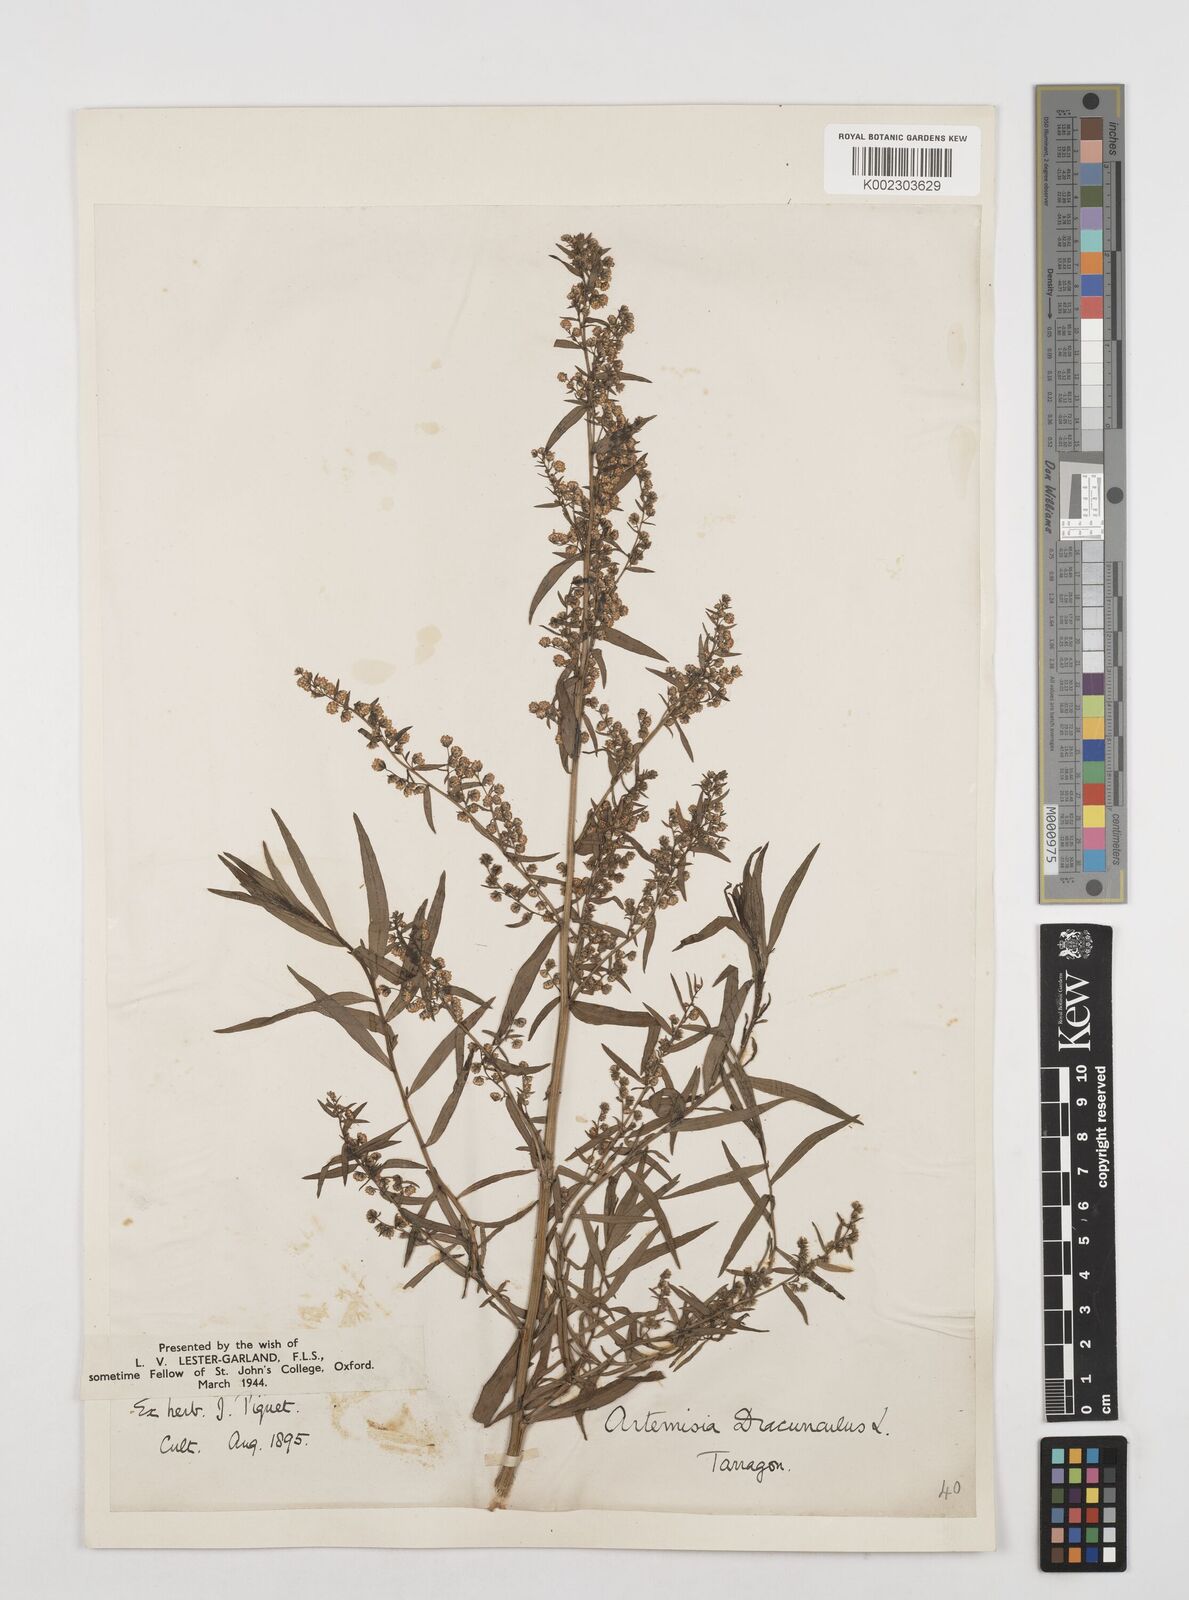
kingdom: Plantae
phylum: Tracheophyta
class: Magnoliopsida
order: Asterales
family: Asteraceae
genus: Artemisia
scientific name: Artemisia dracunculus
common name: Tarragon
